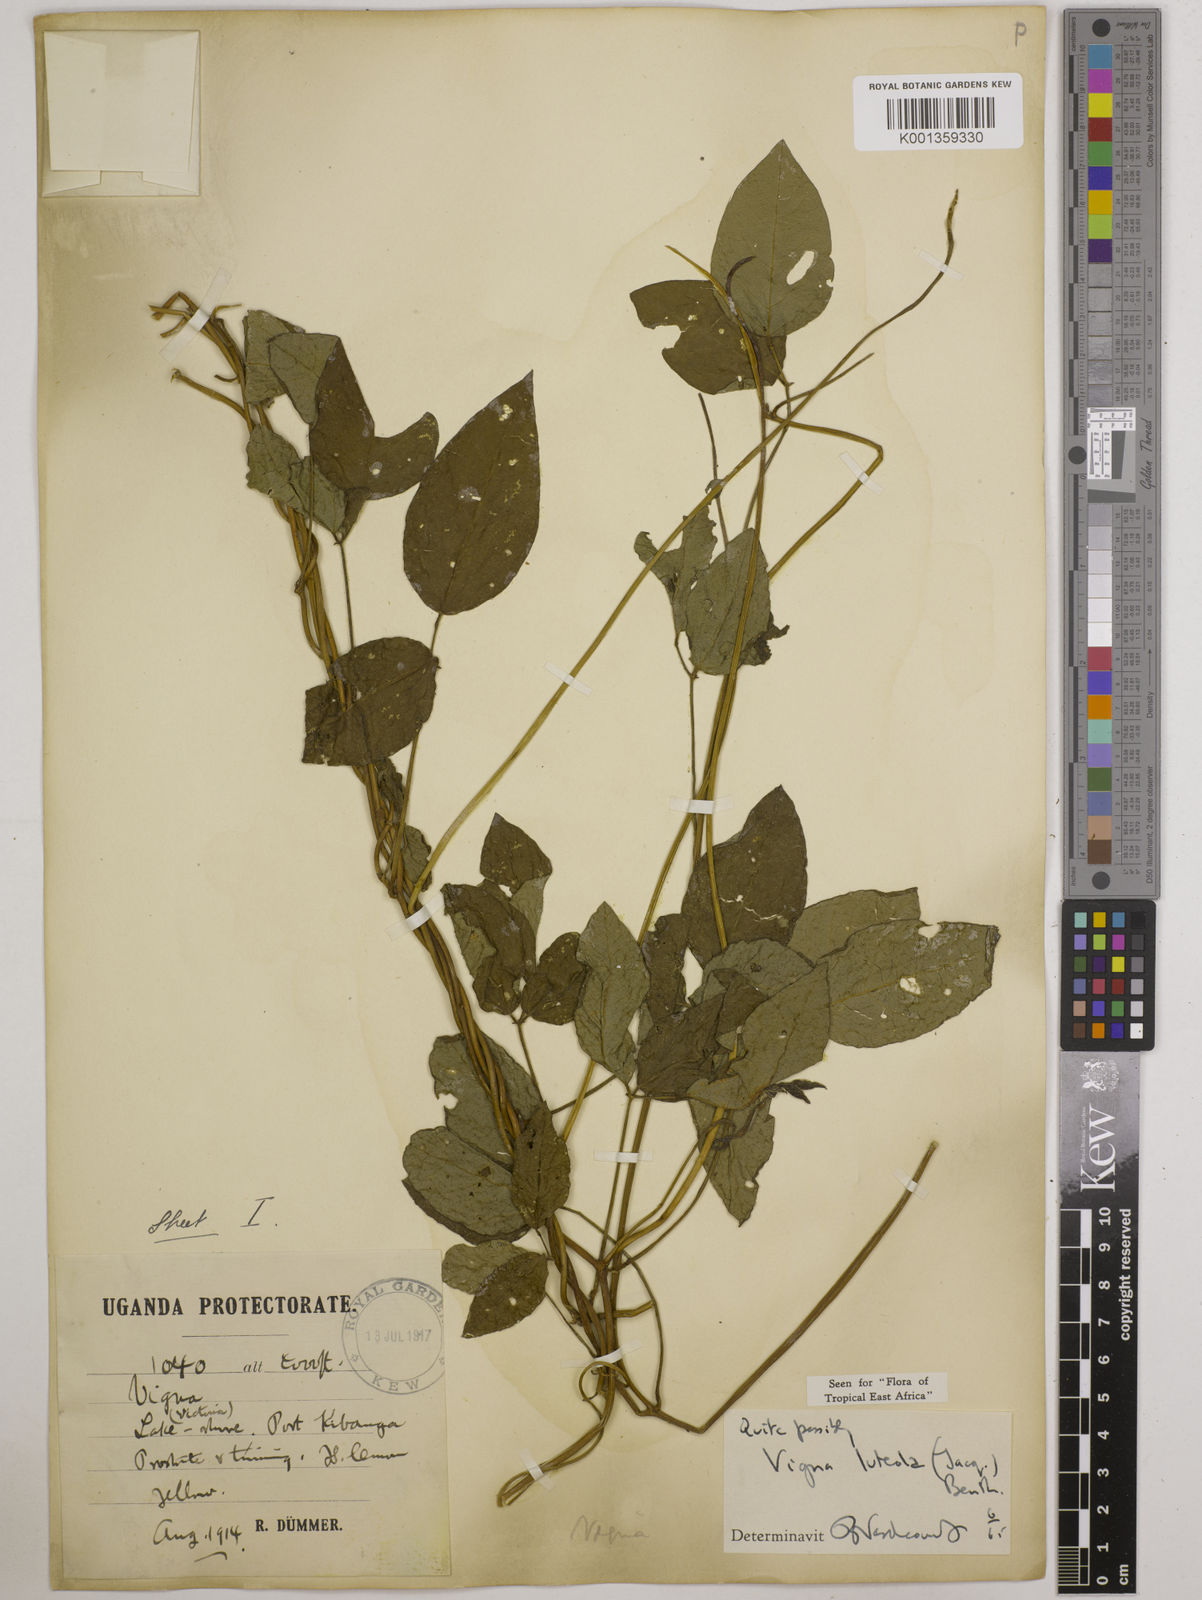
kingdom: Plantae
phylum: Tracheophyta
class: Magnoliopsida
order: Fabales
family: Fabaceae
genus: Vigna
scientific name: Vigna luteola
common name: Hairypod cowpea
